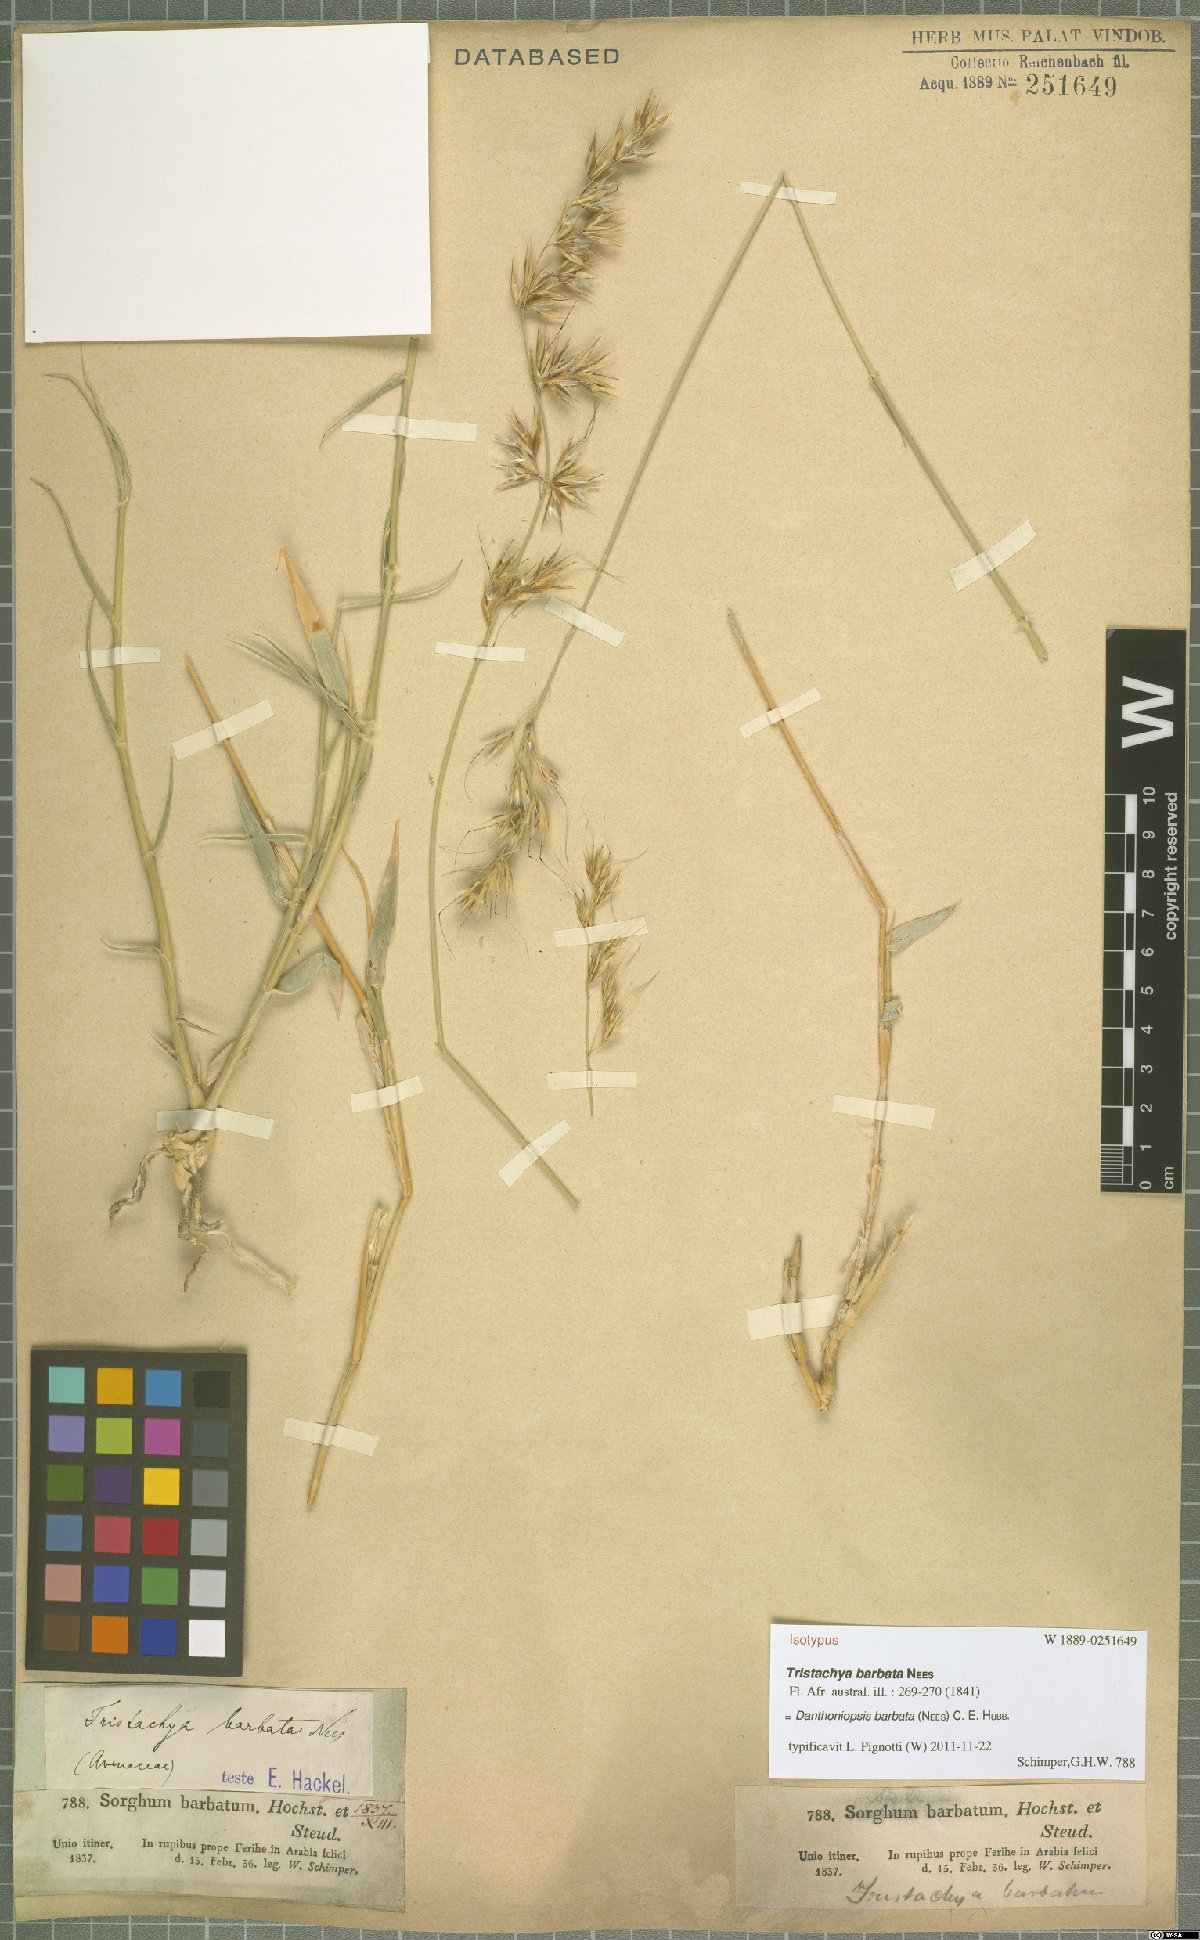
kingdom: Plantae
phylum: Tracheophyta
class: Liliopsida
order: Poales
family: Poaceae
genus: Danthoniopsis
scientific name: Danthoniopsis barbata
